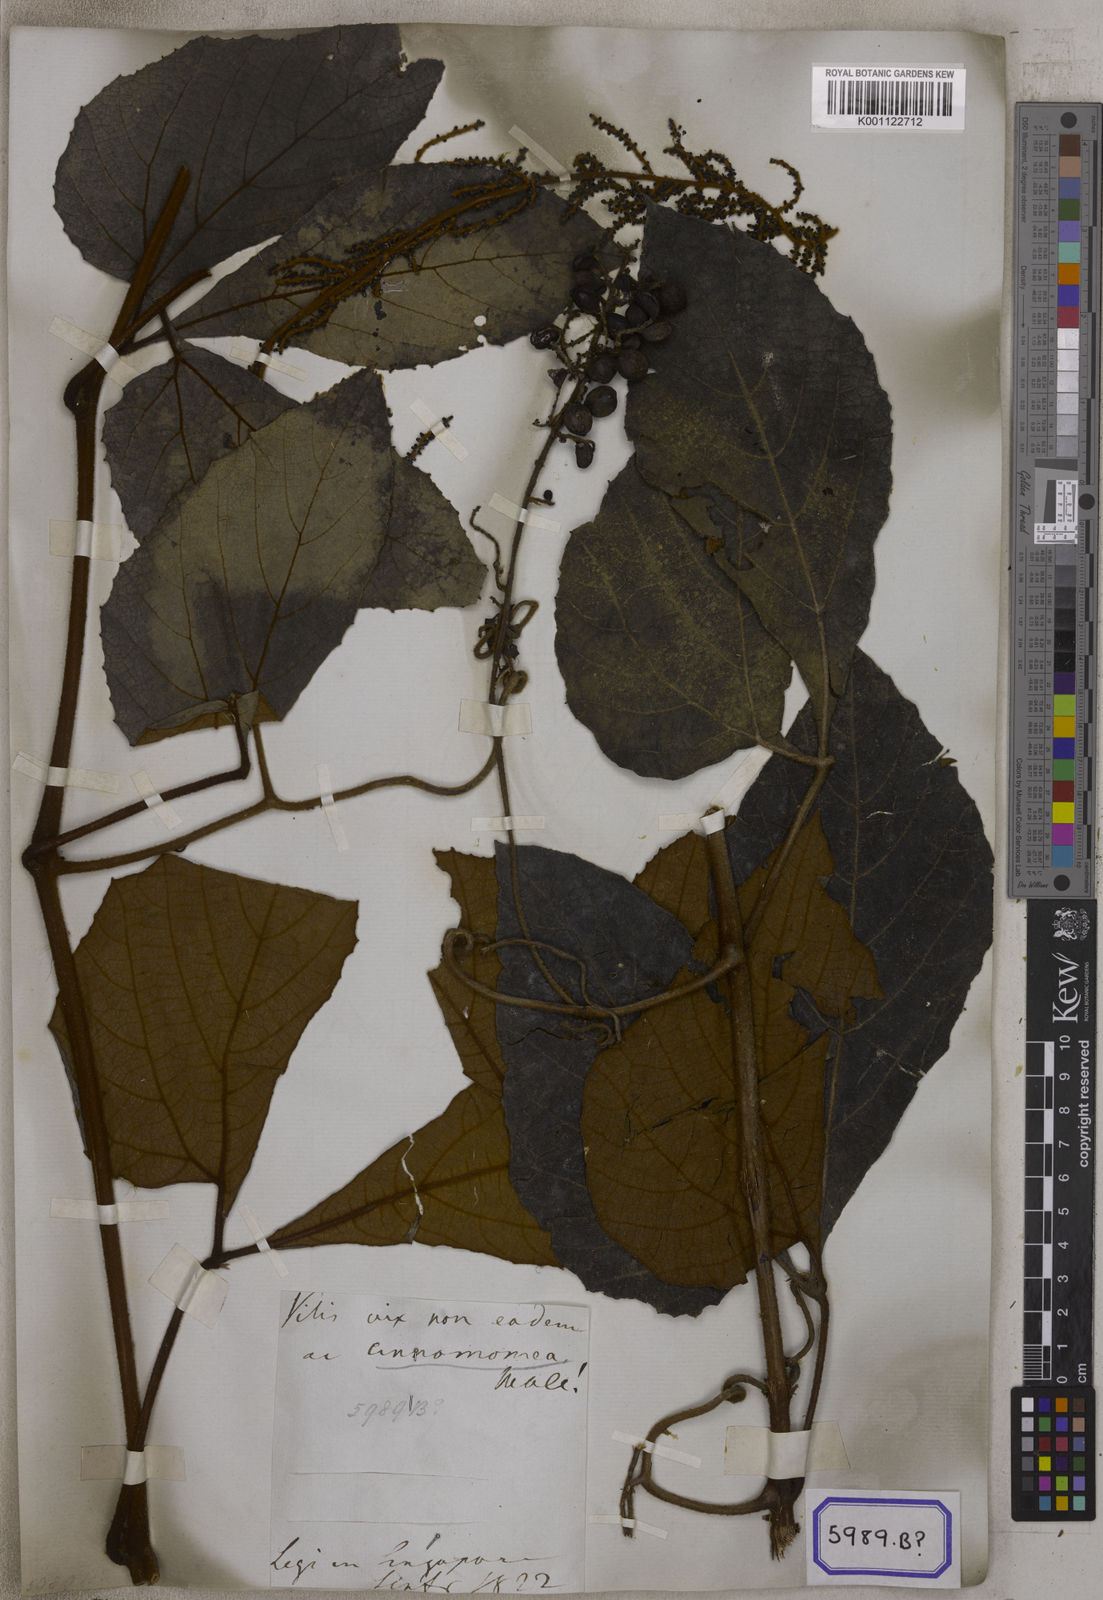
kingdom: Plantae
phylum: Tracheophyta
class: Magnoliopsida
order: Vitales
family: Vitaceae
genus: Ampelocissus
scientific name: Ampelocissus cinnamomea
